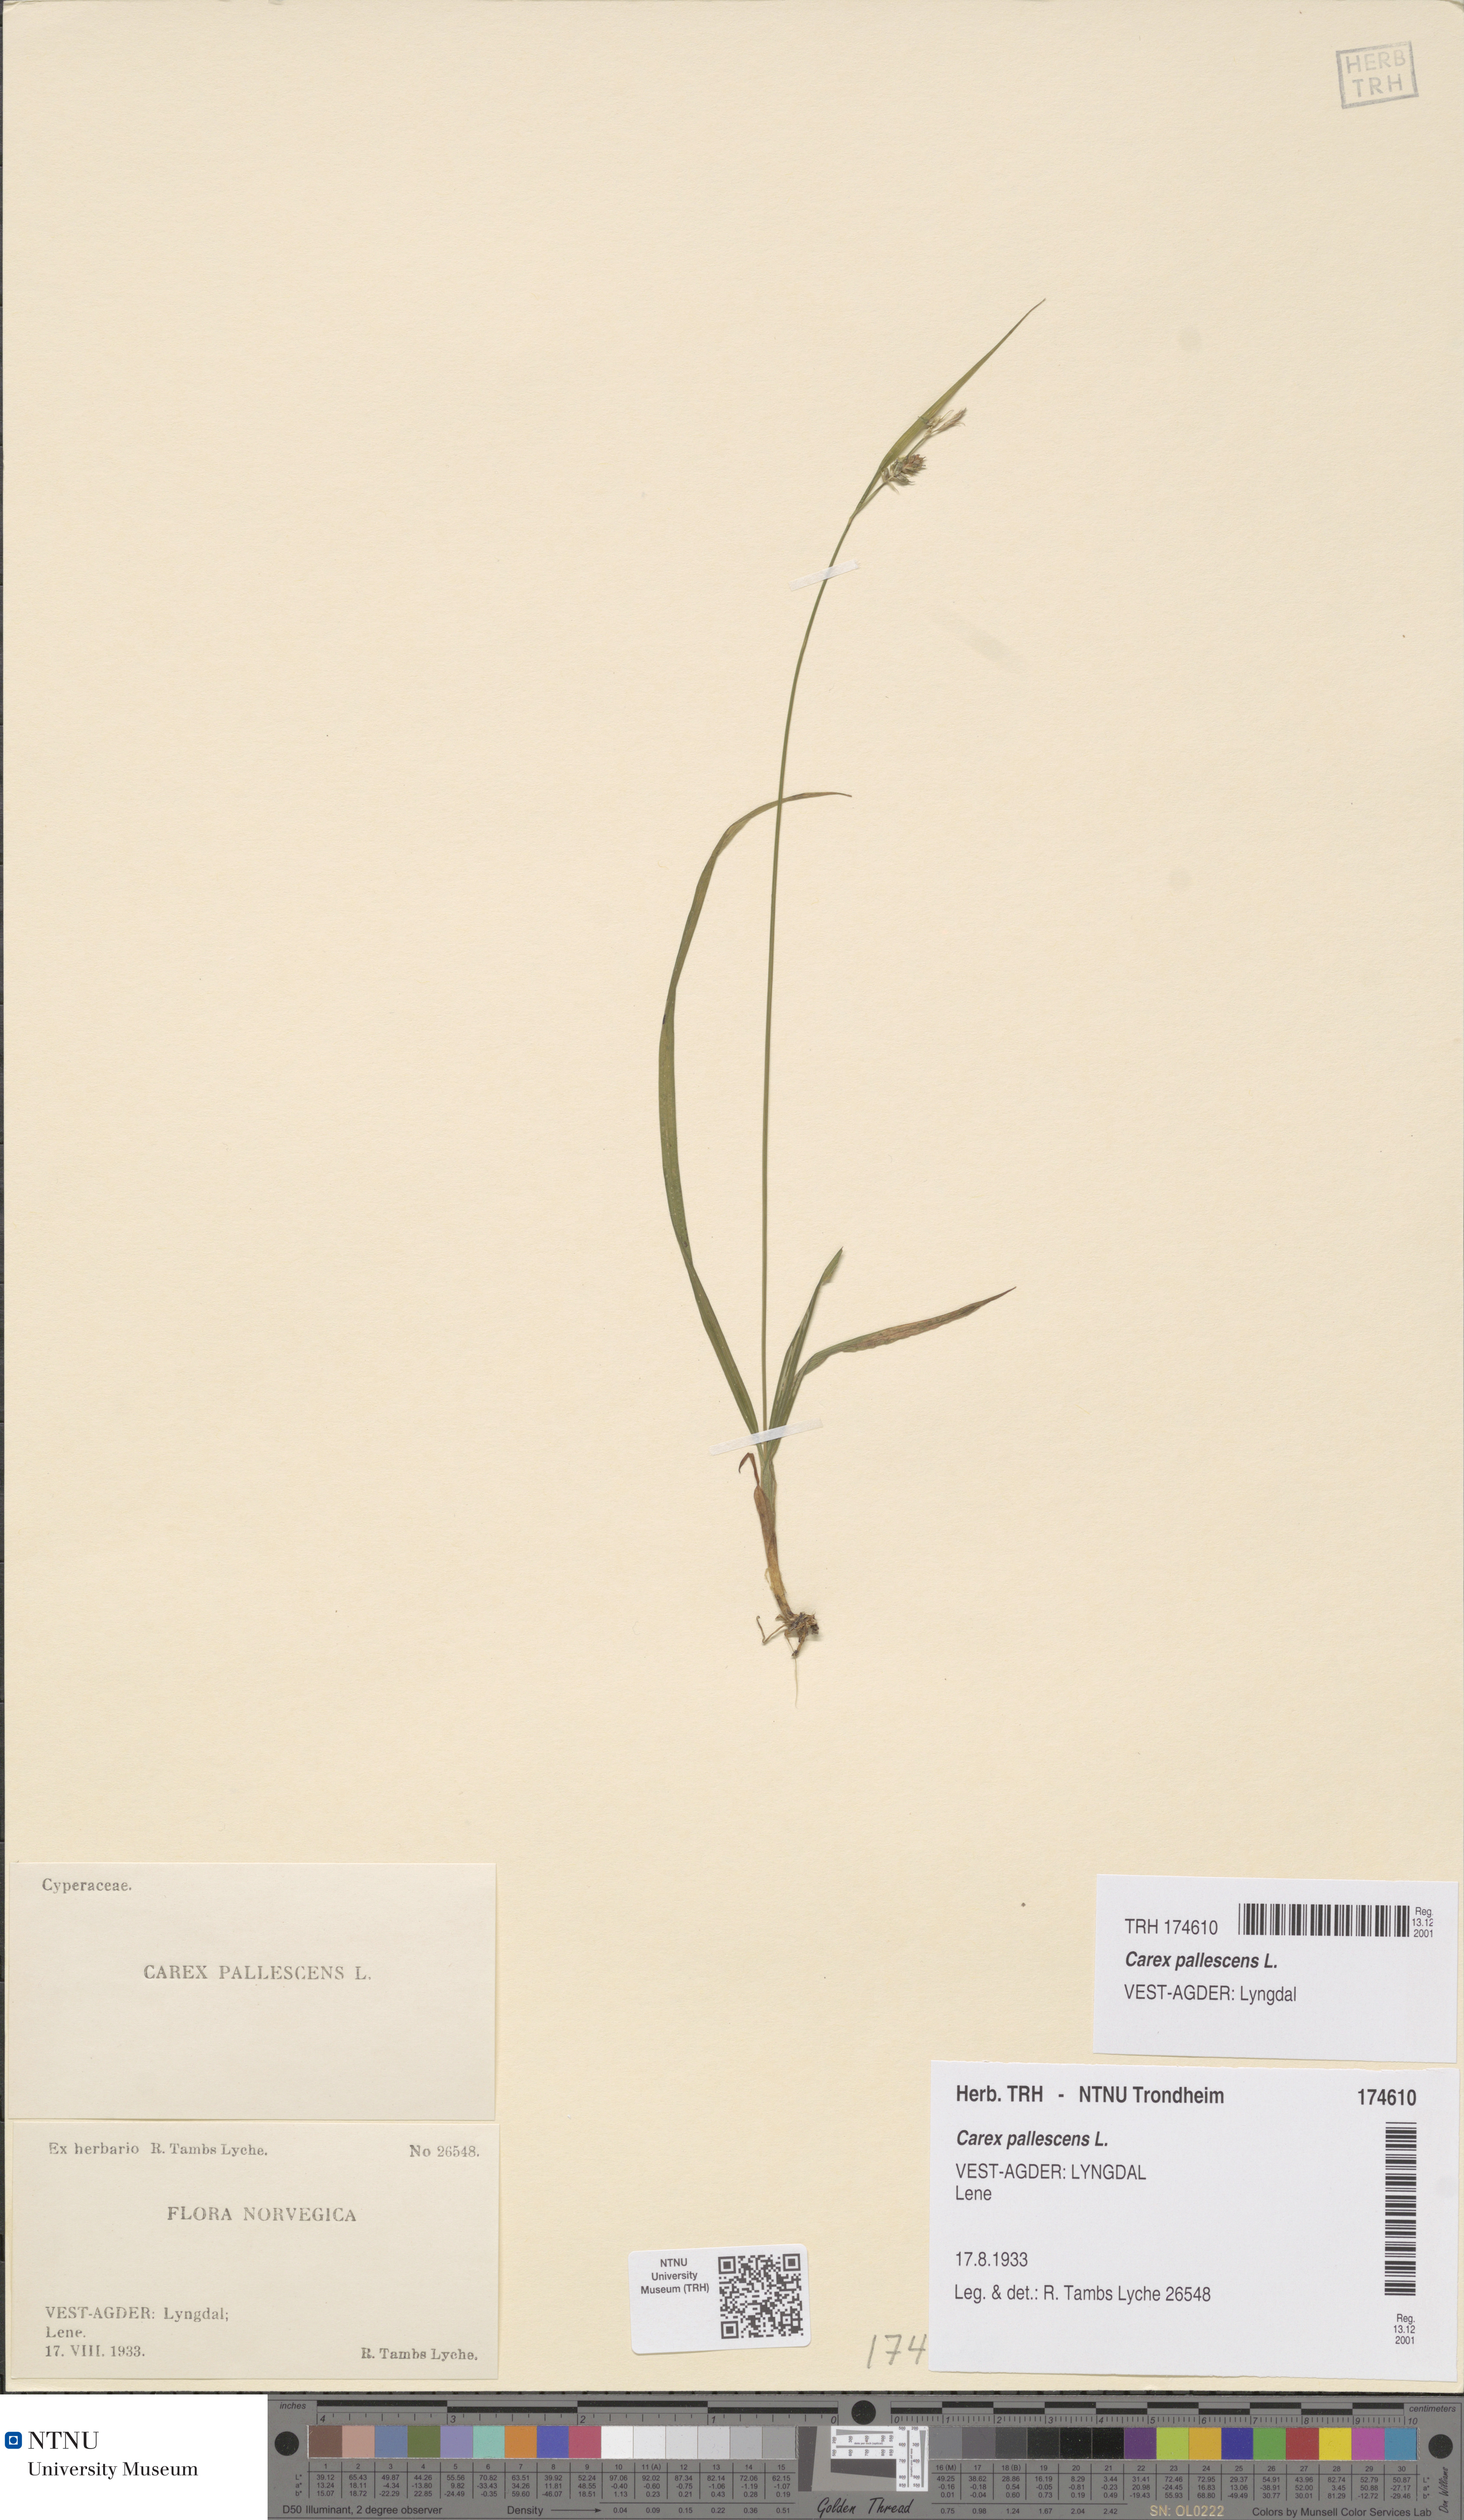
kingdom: Plantae
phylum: Tracheophyta
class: Liliopsida
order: Poales
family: Cyperaceae
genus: Carex
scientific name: Carex pallescens
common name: Pale sedge
